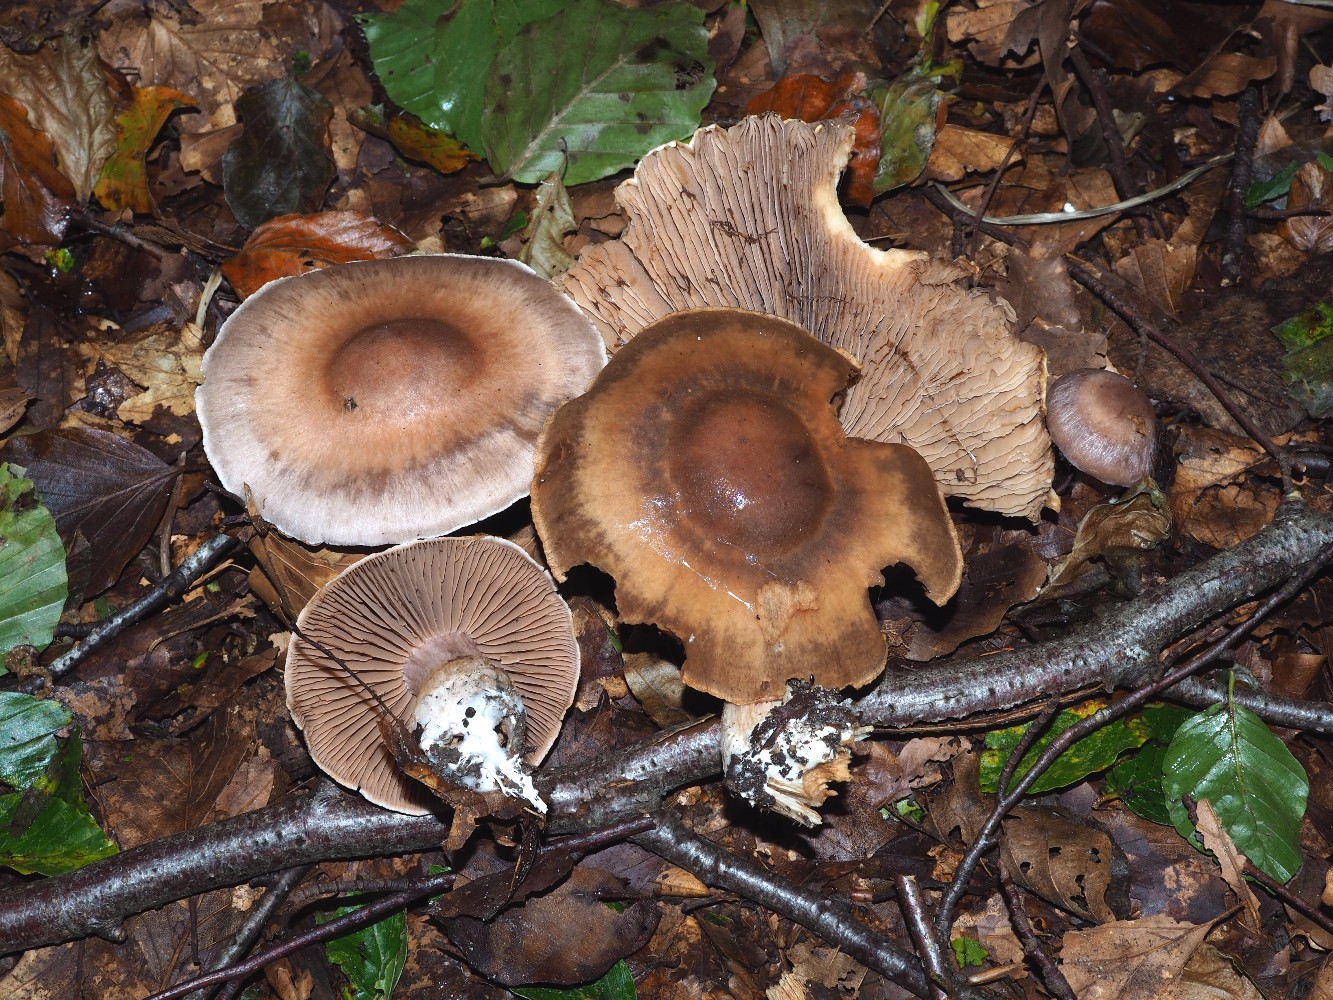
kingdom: Fungi
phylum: Basidiomycota
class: Agaricomycetes
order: Agaricales
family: Cortinariaceae
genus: Cortinarius
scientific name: Cortinarius torvus
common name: champignonagtig slørhat
